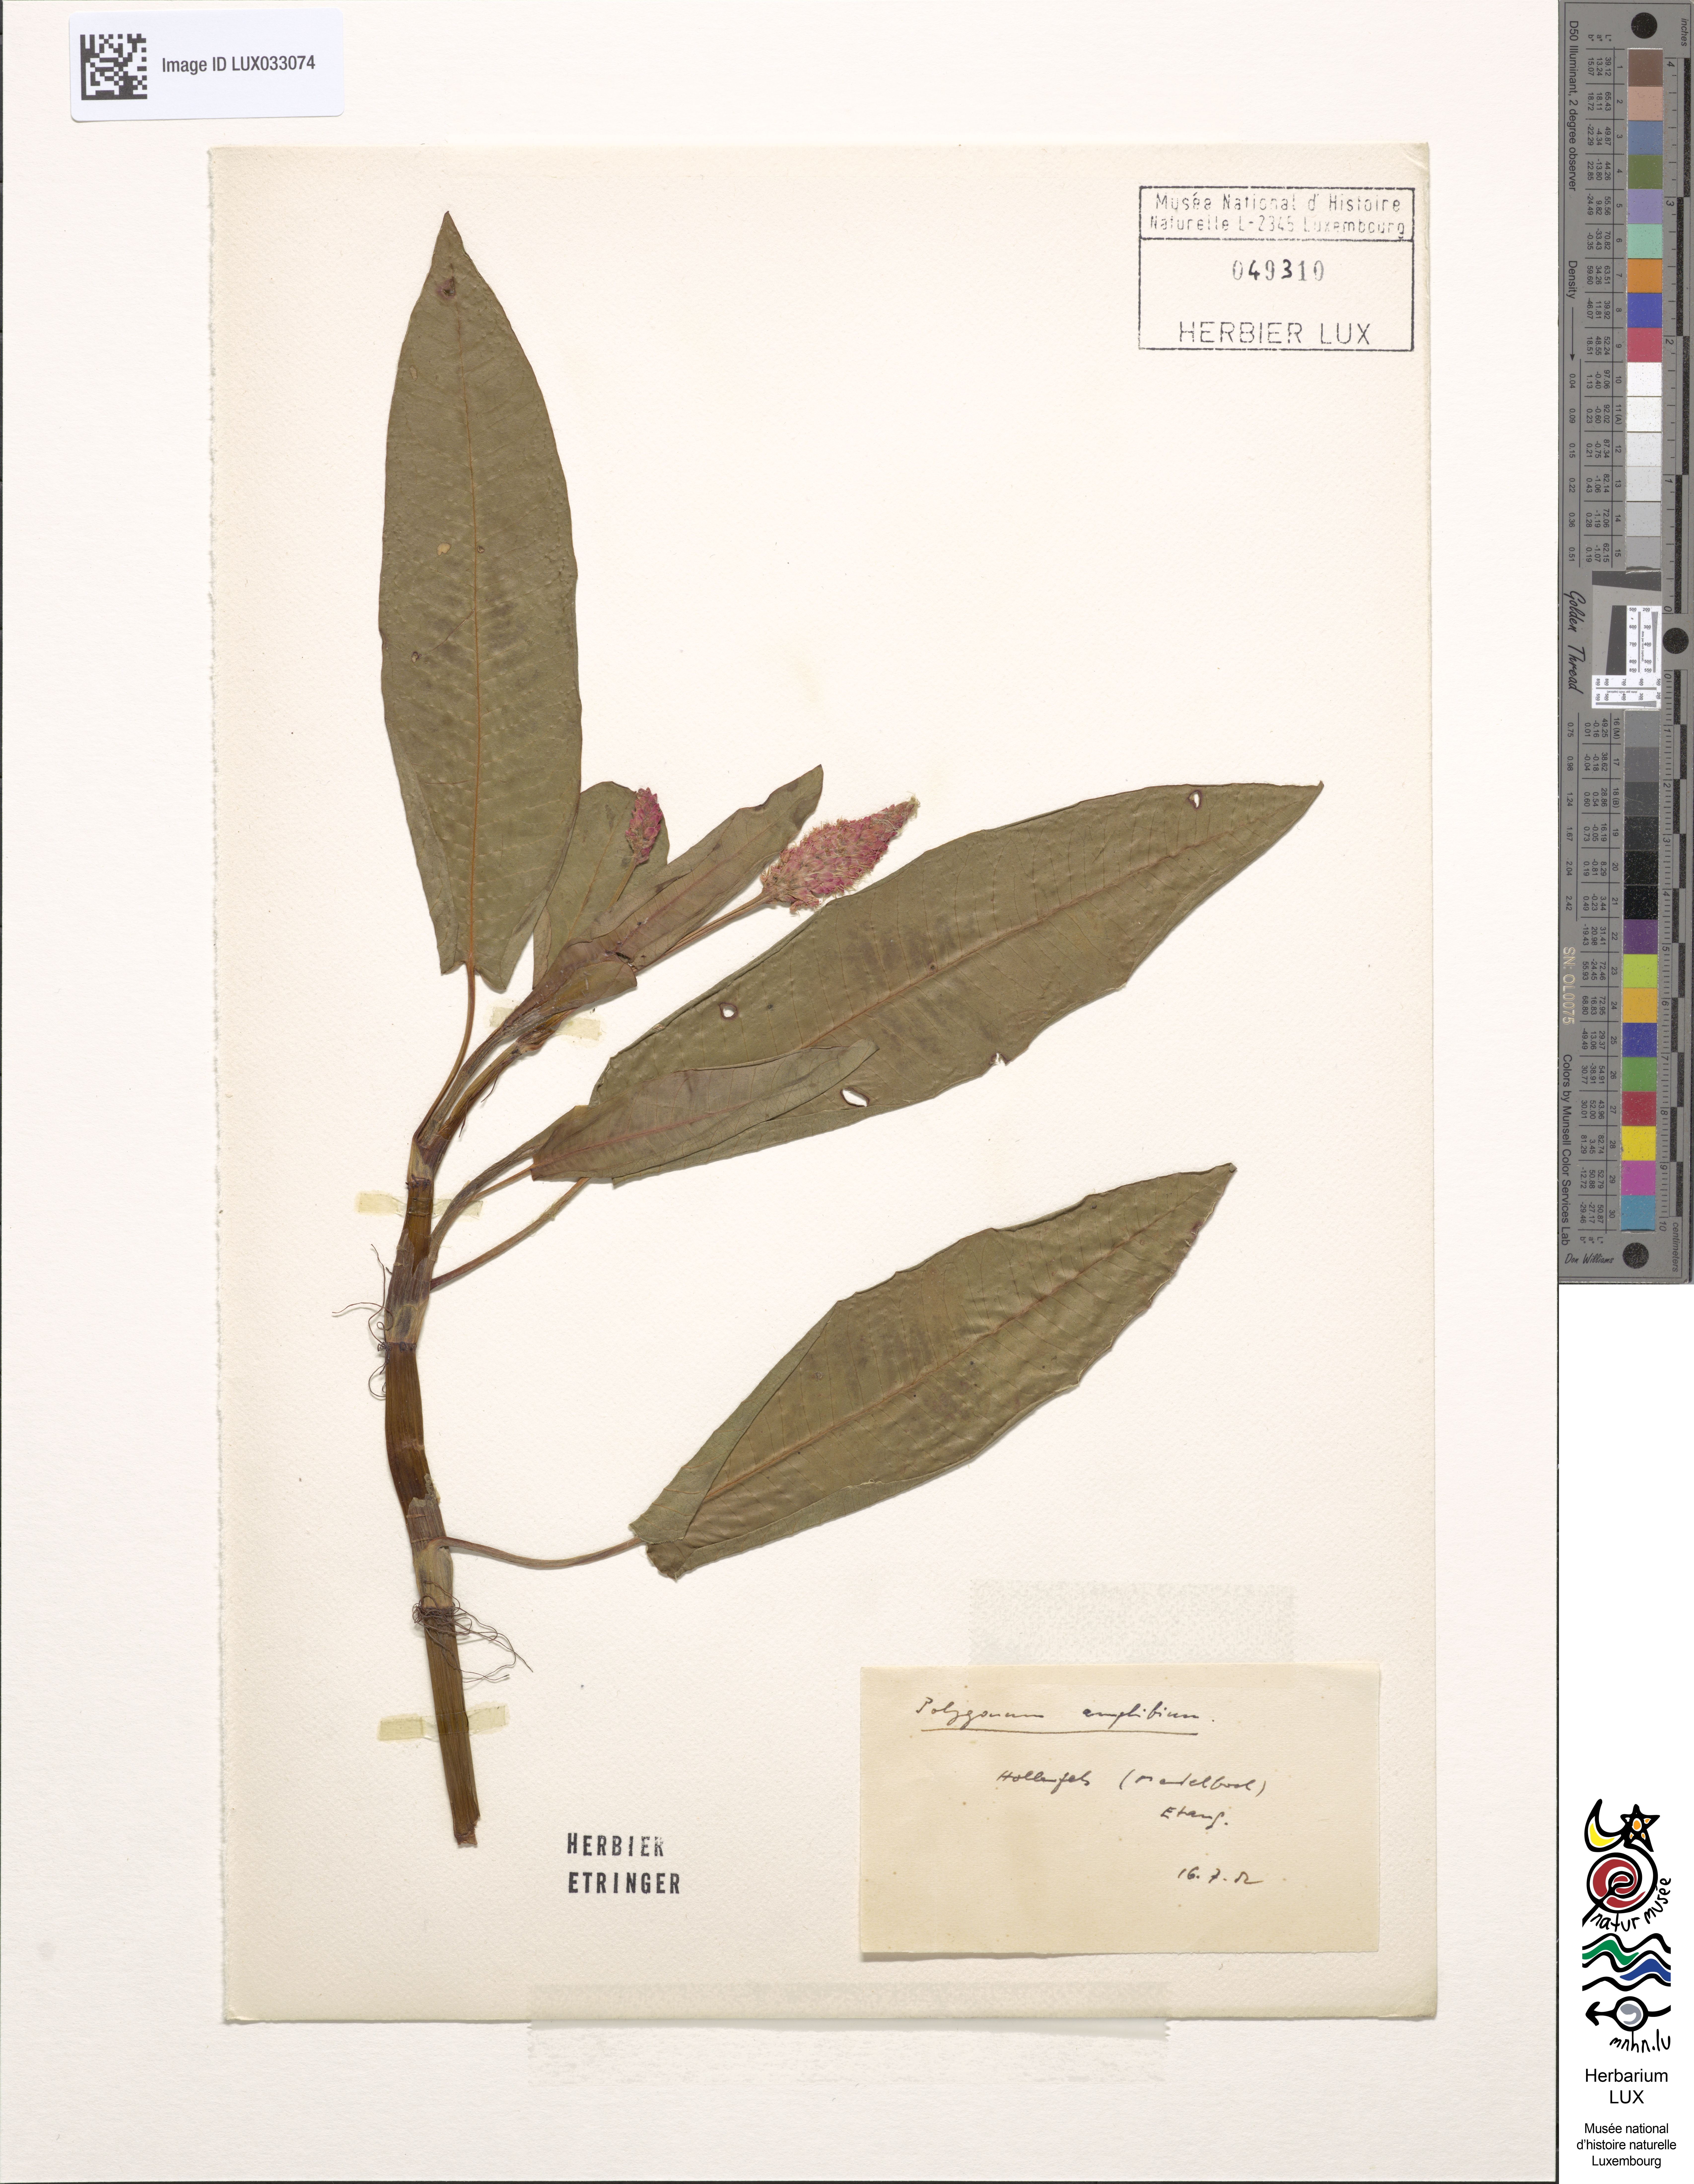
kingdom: Plantae
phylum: Tracheophyta
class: Magnoliopsida
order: Caryophyllales
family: Polygonaceae
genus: Persicaria
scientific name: Persicaria amphibia
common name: Amphibious bistort
